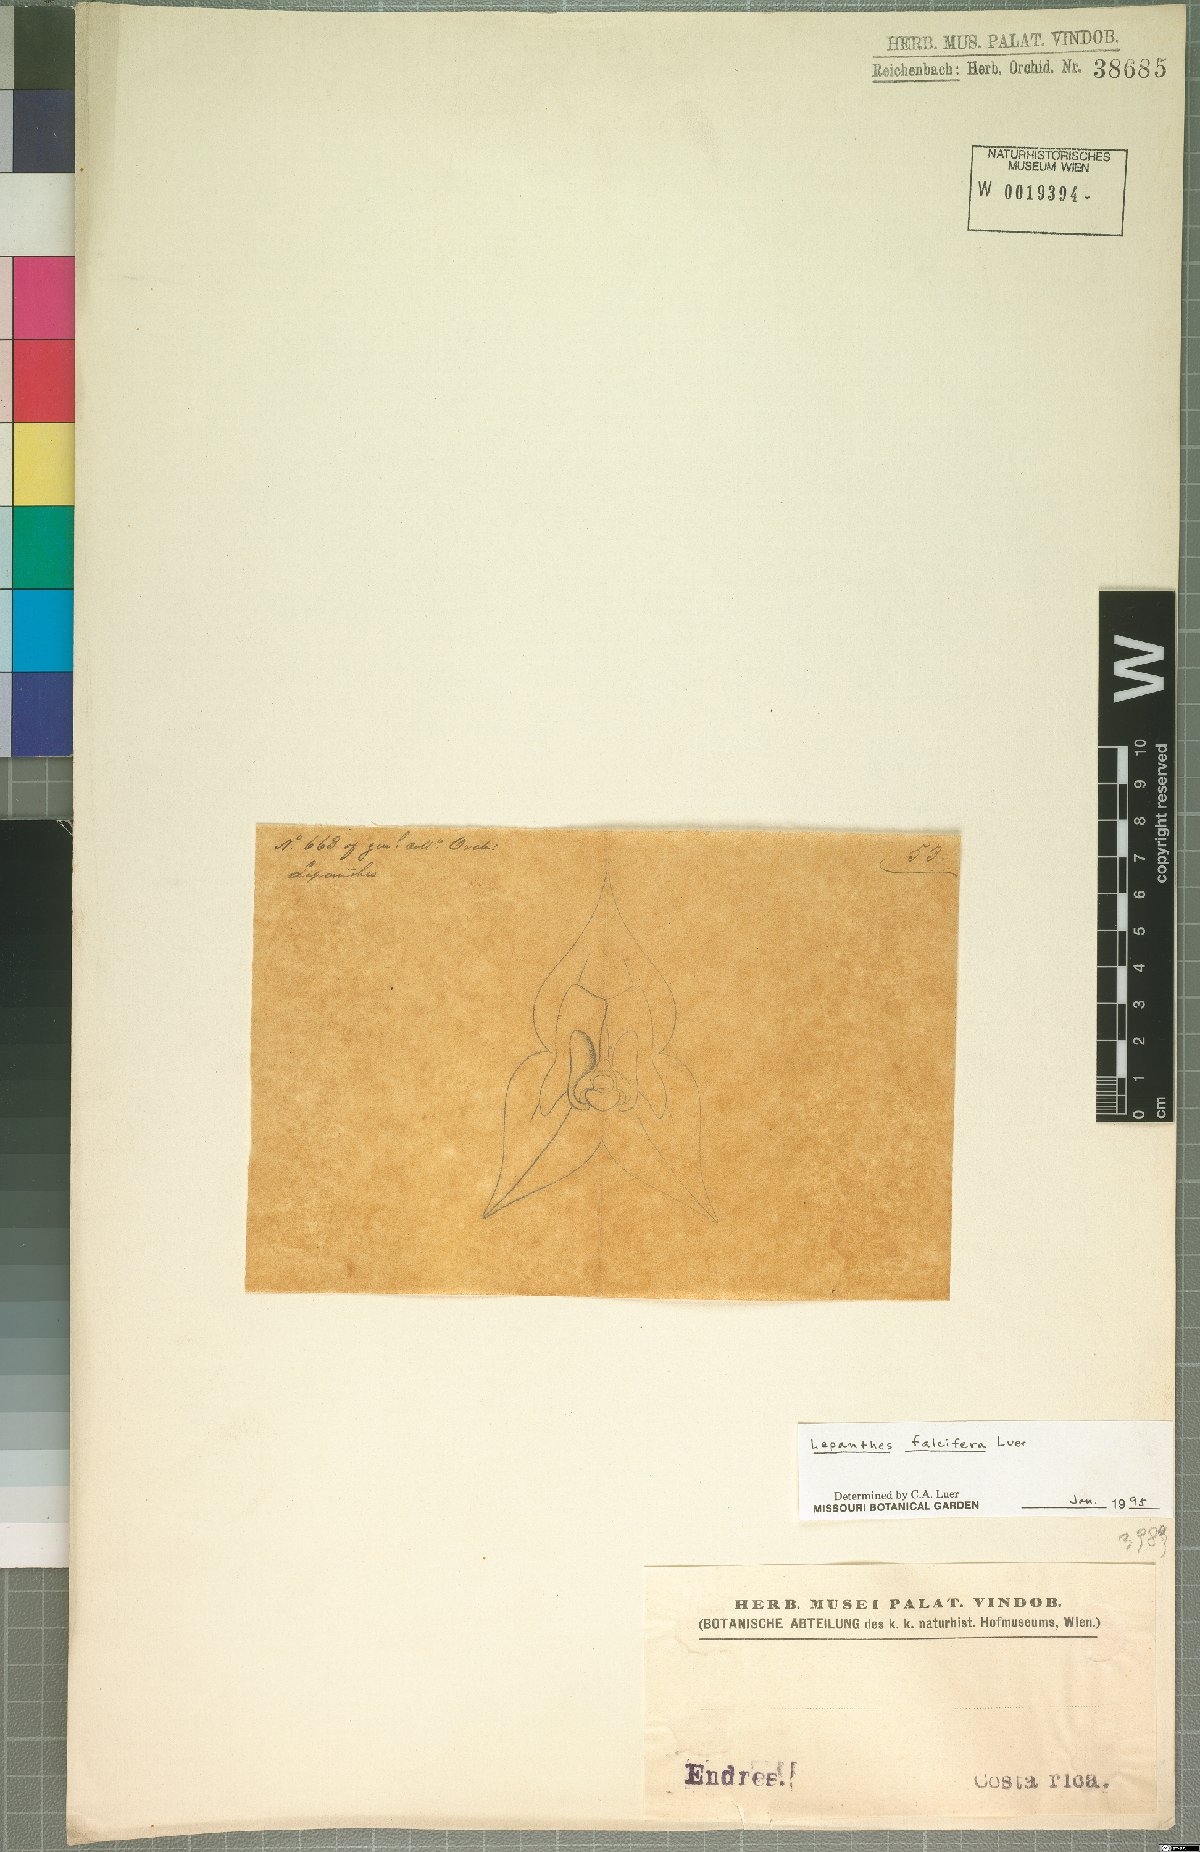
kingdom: Plantae
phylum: Tracheophyta
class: Liliopsida
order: Asparagales
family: Orchidaceae
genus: Lepanthes
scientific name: Lepanthes falcifera
